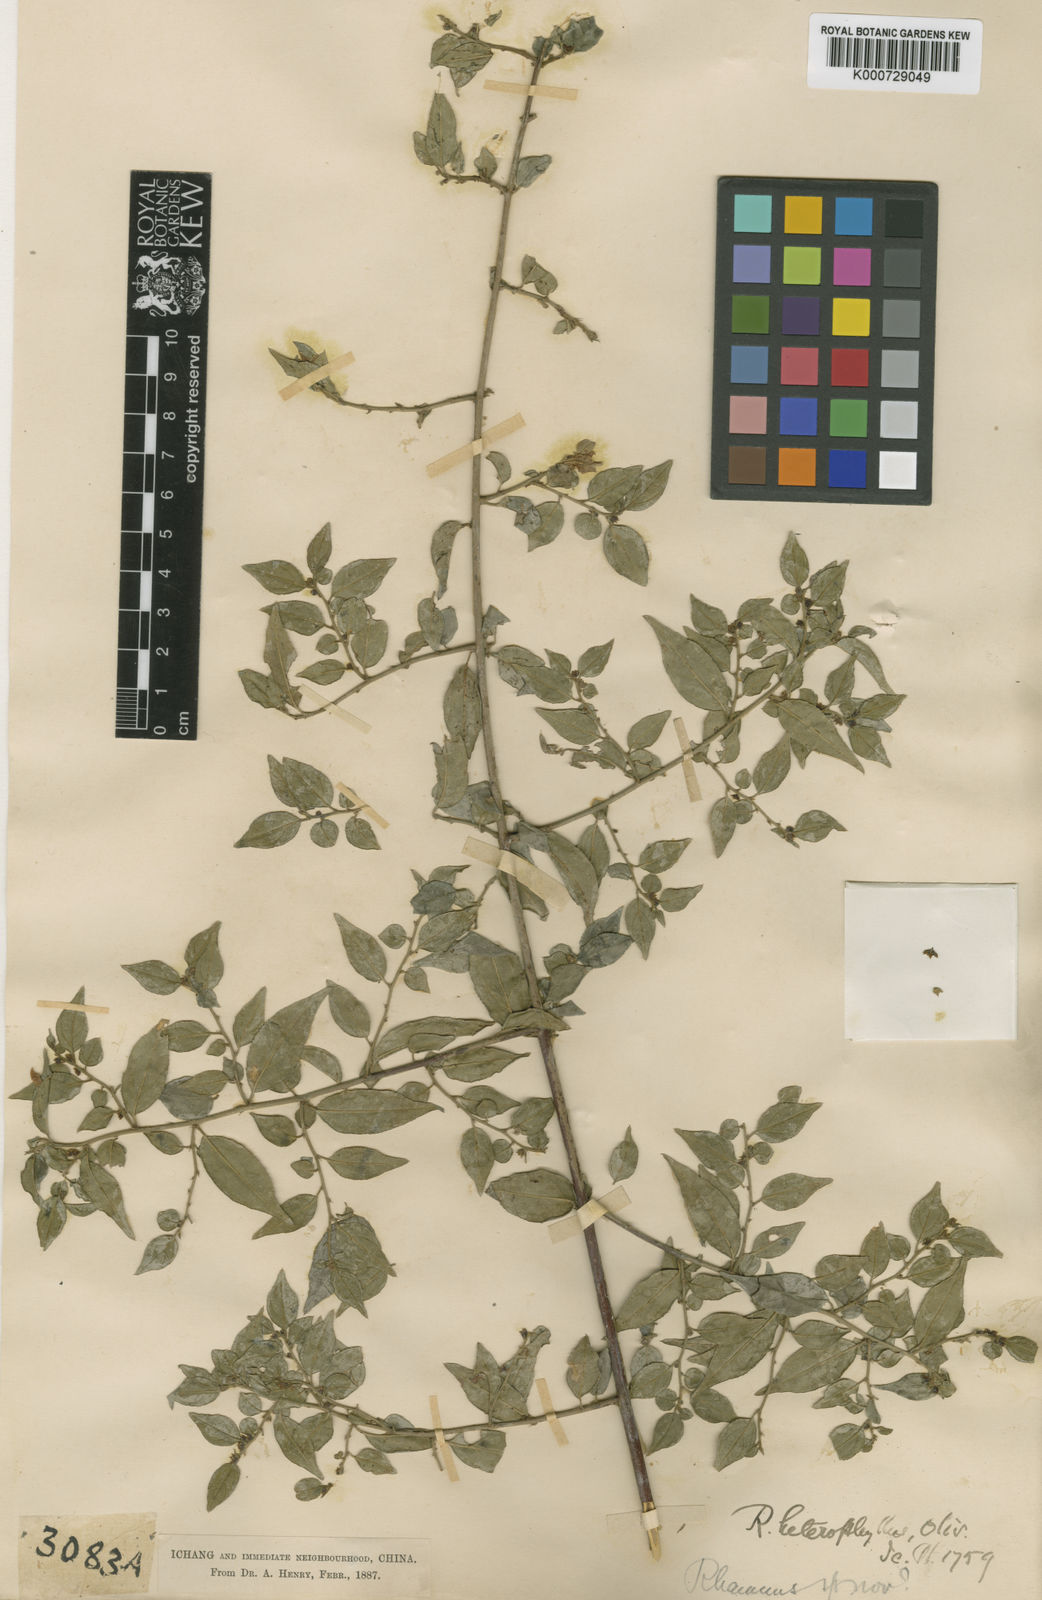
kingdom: Plantae
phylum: Tracheophyta
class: Magnoliopsida
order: Rosales
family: Rhamnaceae
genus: Rhamnus
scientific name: Rhamnus heterophylla
